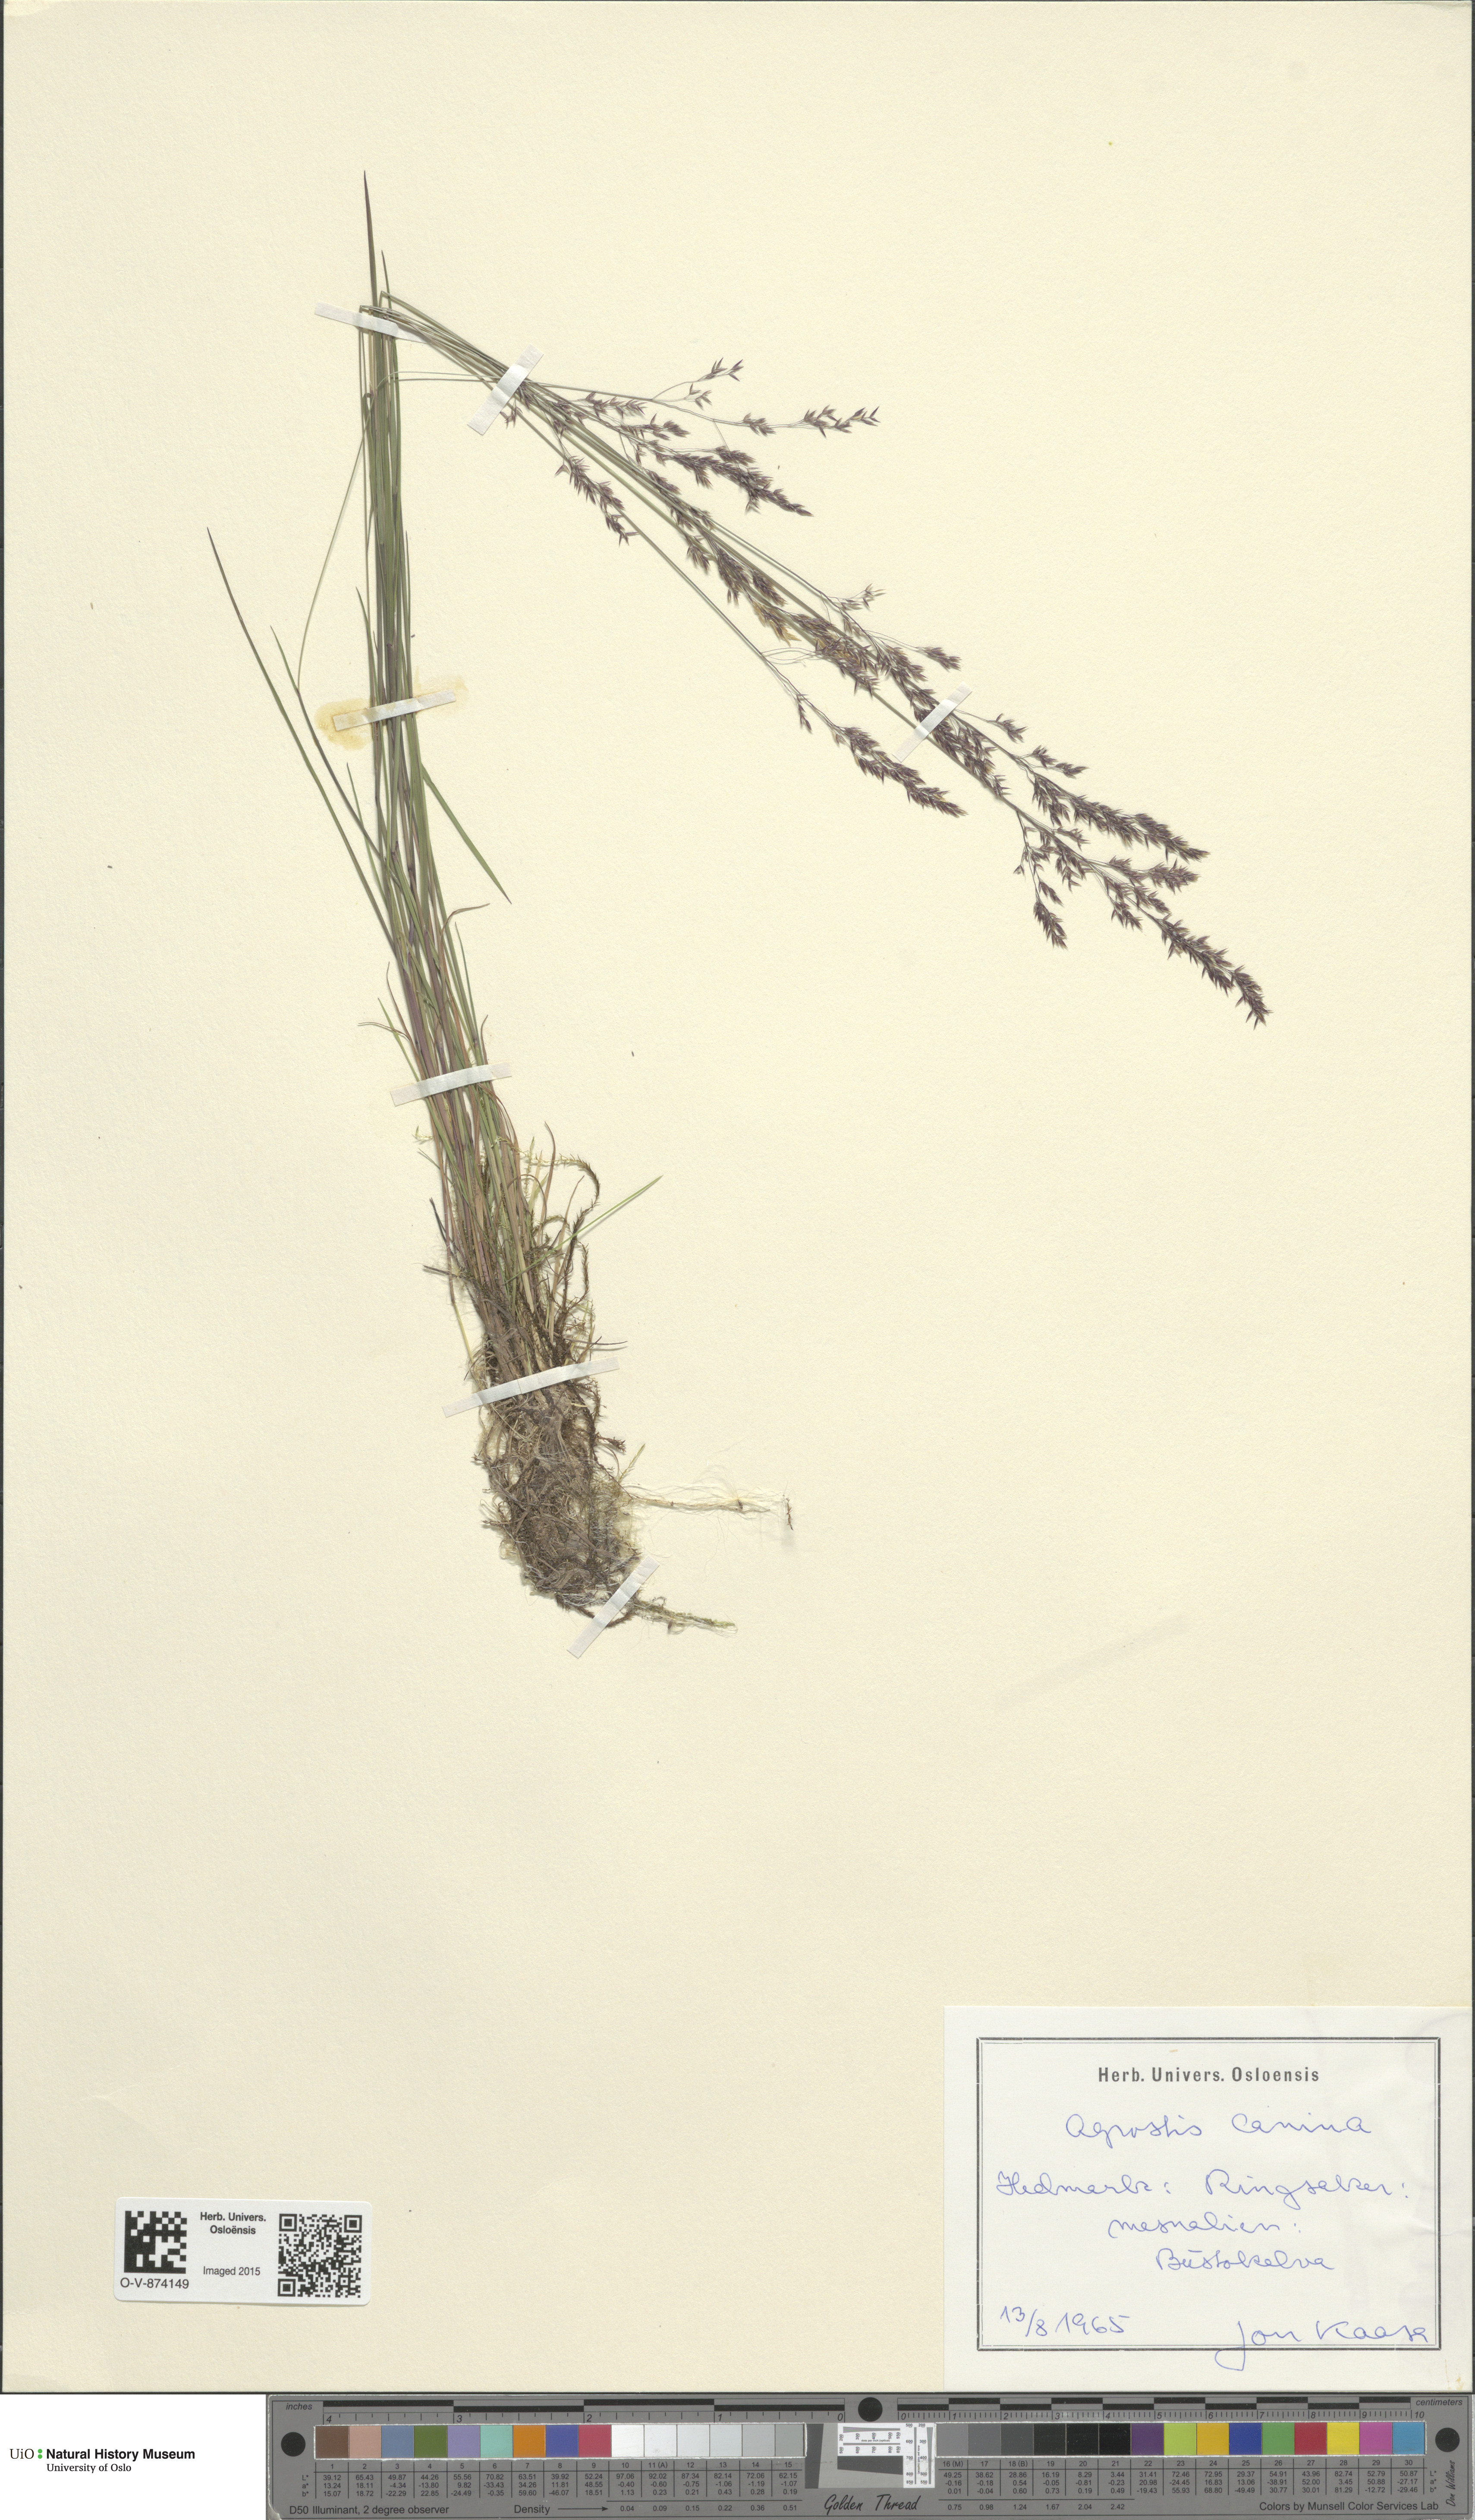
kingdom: Plantae
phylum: Tracheophyta
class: Liliopsida
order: Poales
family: Poaceae
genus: Agrostis
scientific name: Agrostis canina
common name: Velvet bent
